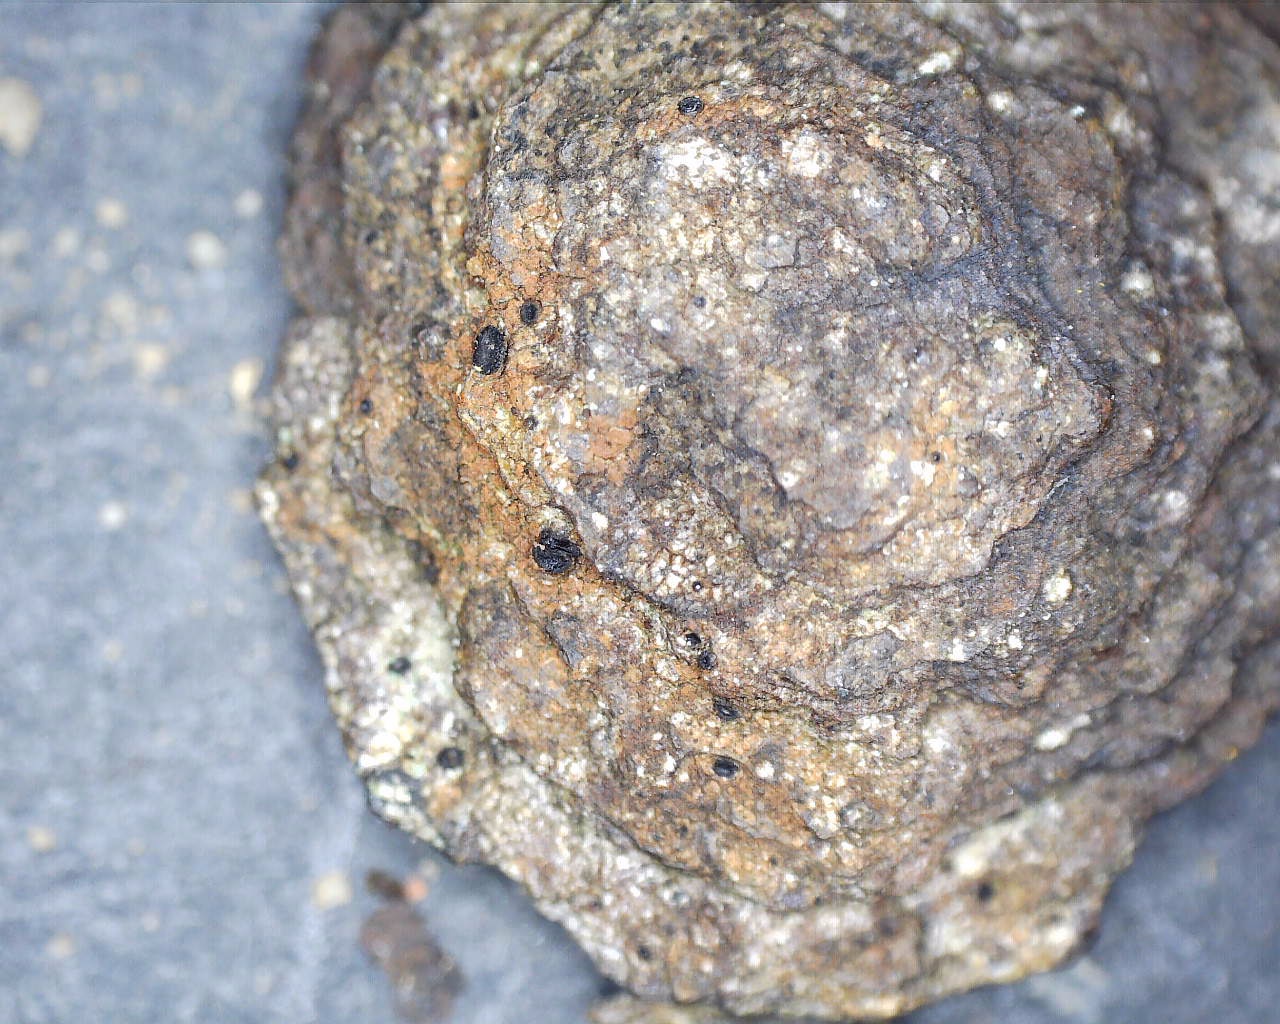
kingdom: Fungi
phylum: Ascomycota
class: Lecanoromycetes
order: Hymeneliales
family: Hymeneliaceae
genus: Tremolecia
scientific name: Tremolecia atrata
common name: rust-småskivelav
